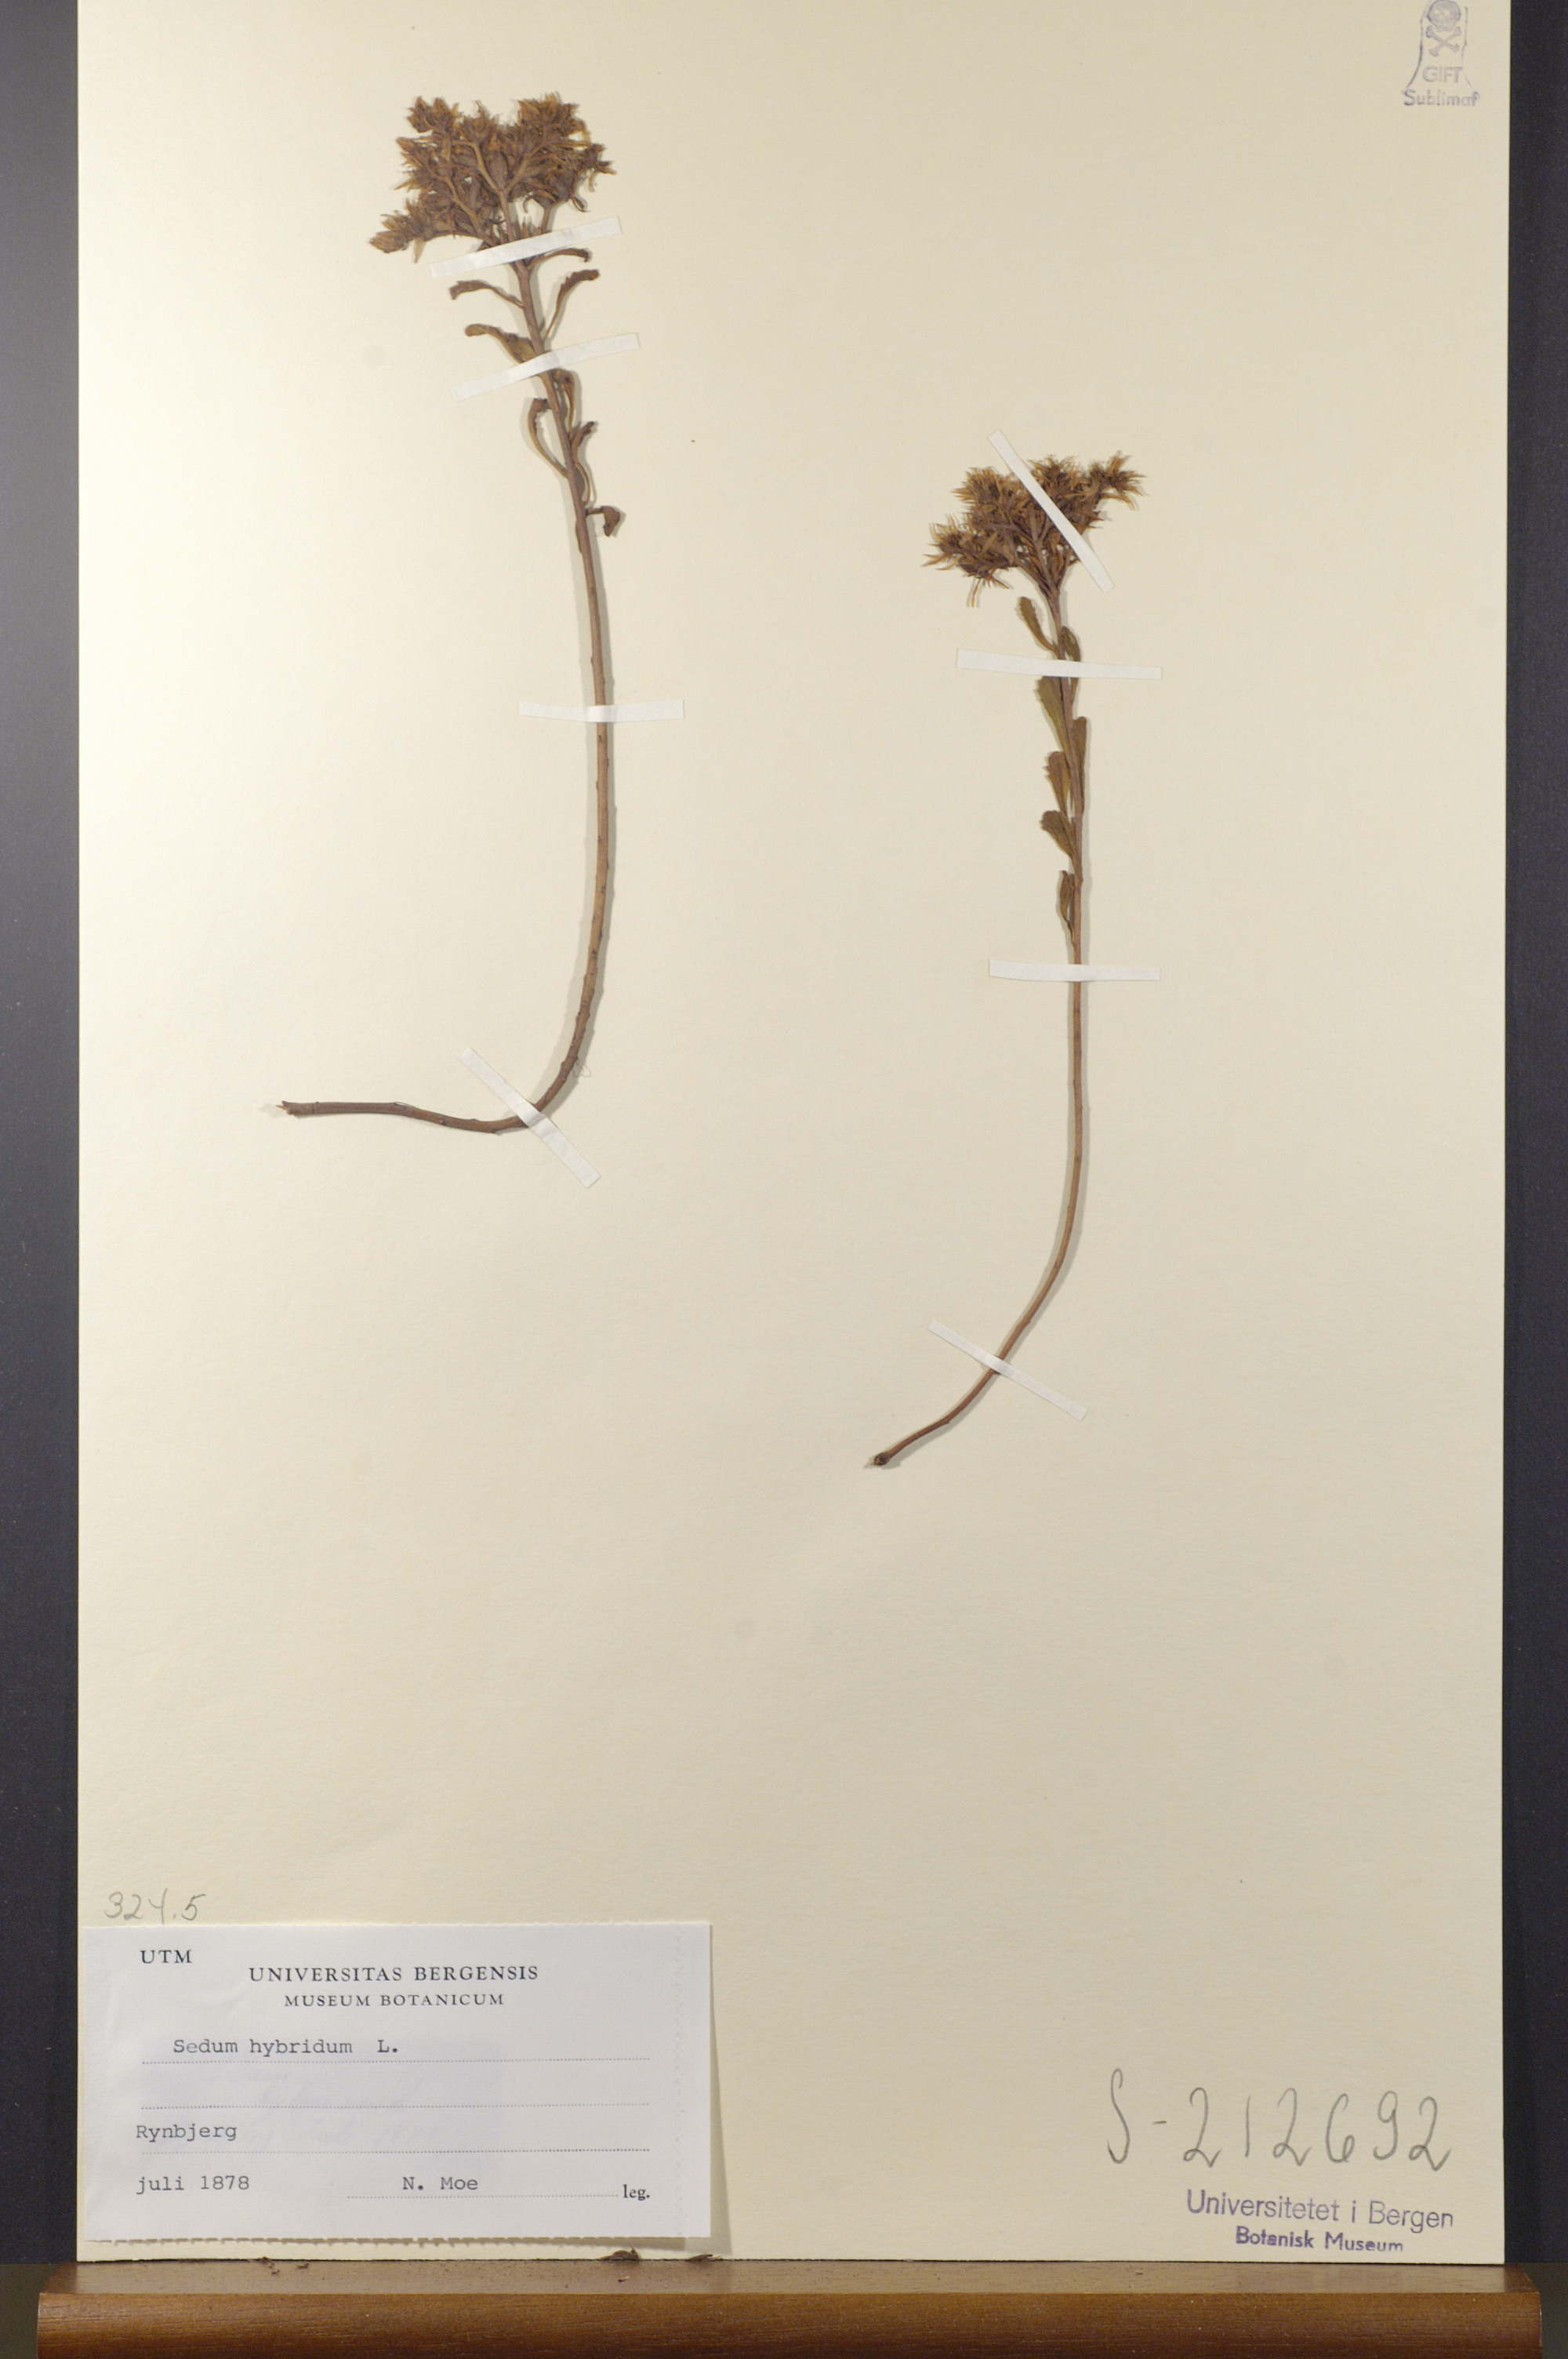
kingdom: Plantae
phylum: Tracheophyta
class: Magnoliopsida
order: Saxifragales
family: Crassulaceae
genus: Phedimus
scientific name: Phedimus hybridus
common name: Hybrid stonecrop
